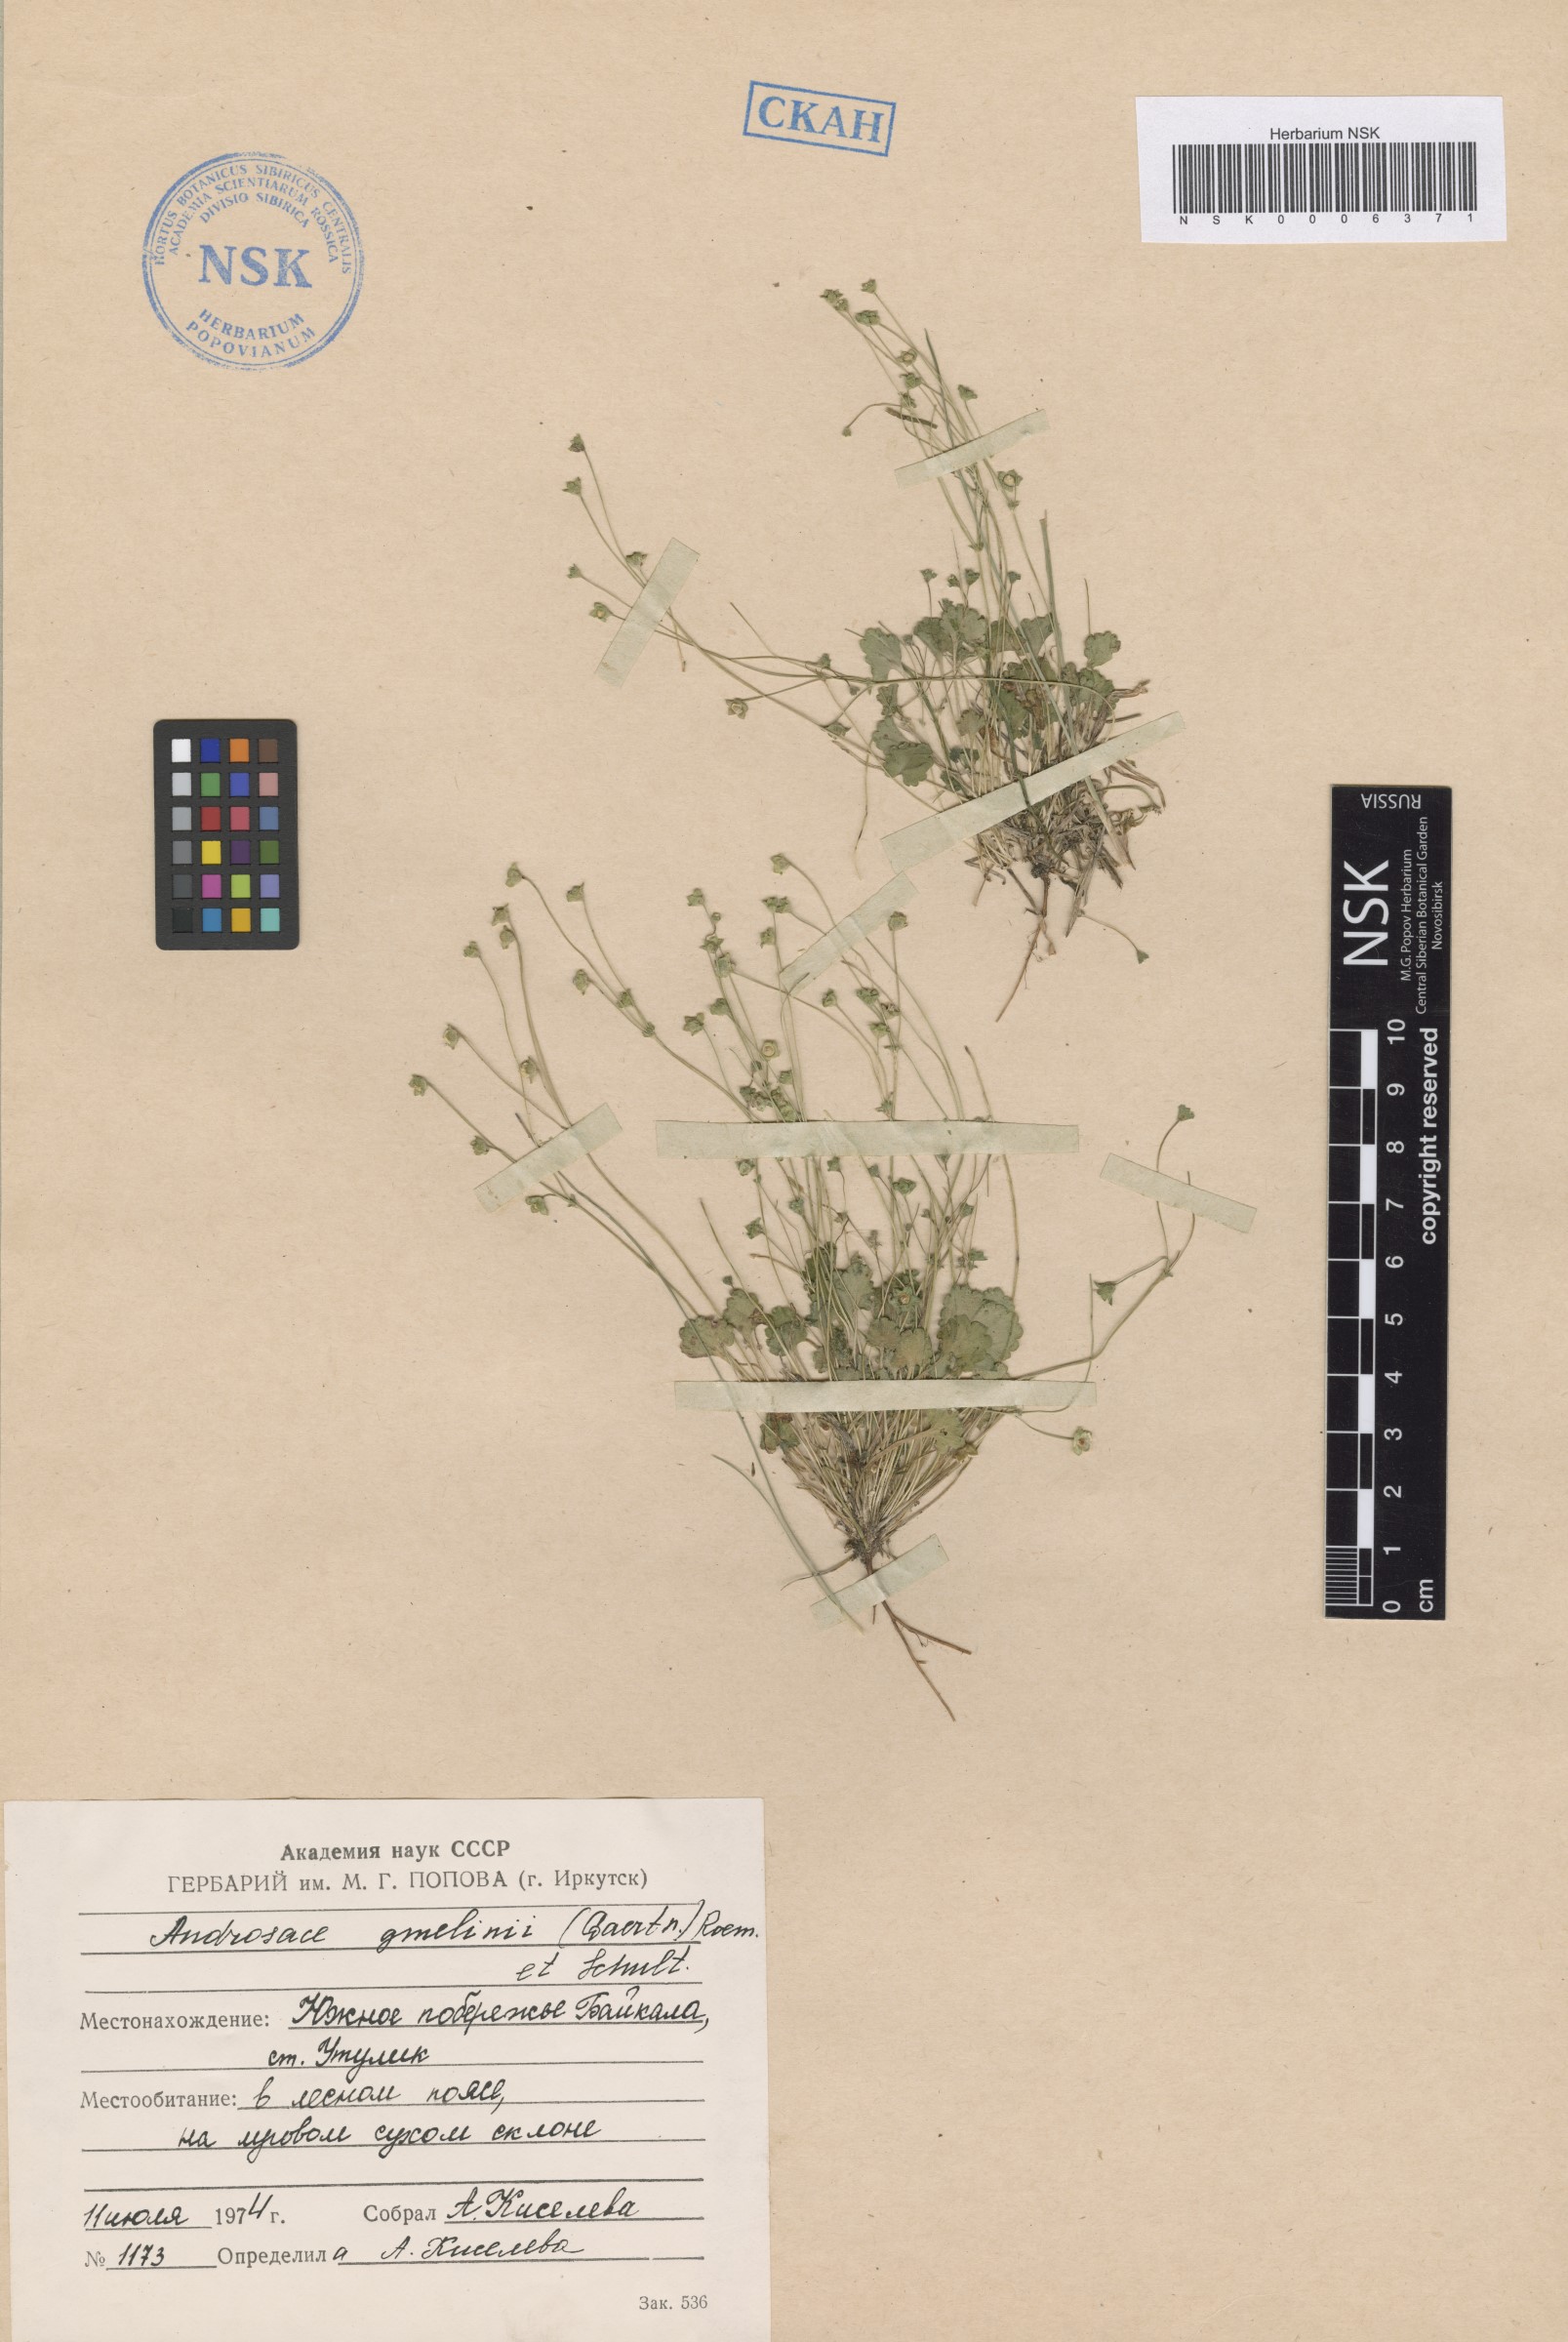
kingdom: Plantae
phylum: Tracheophyta
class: Magnoliopsida
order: Ericales
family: Primulaceae
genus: Androsace
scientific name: Androsace gmelinii
